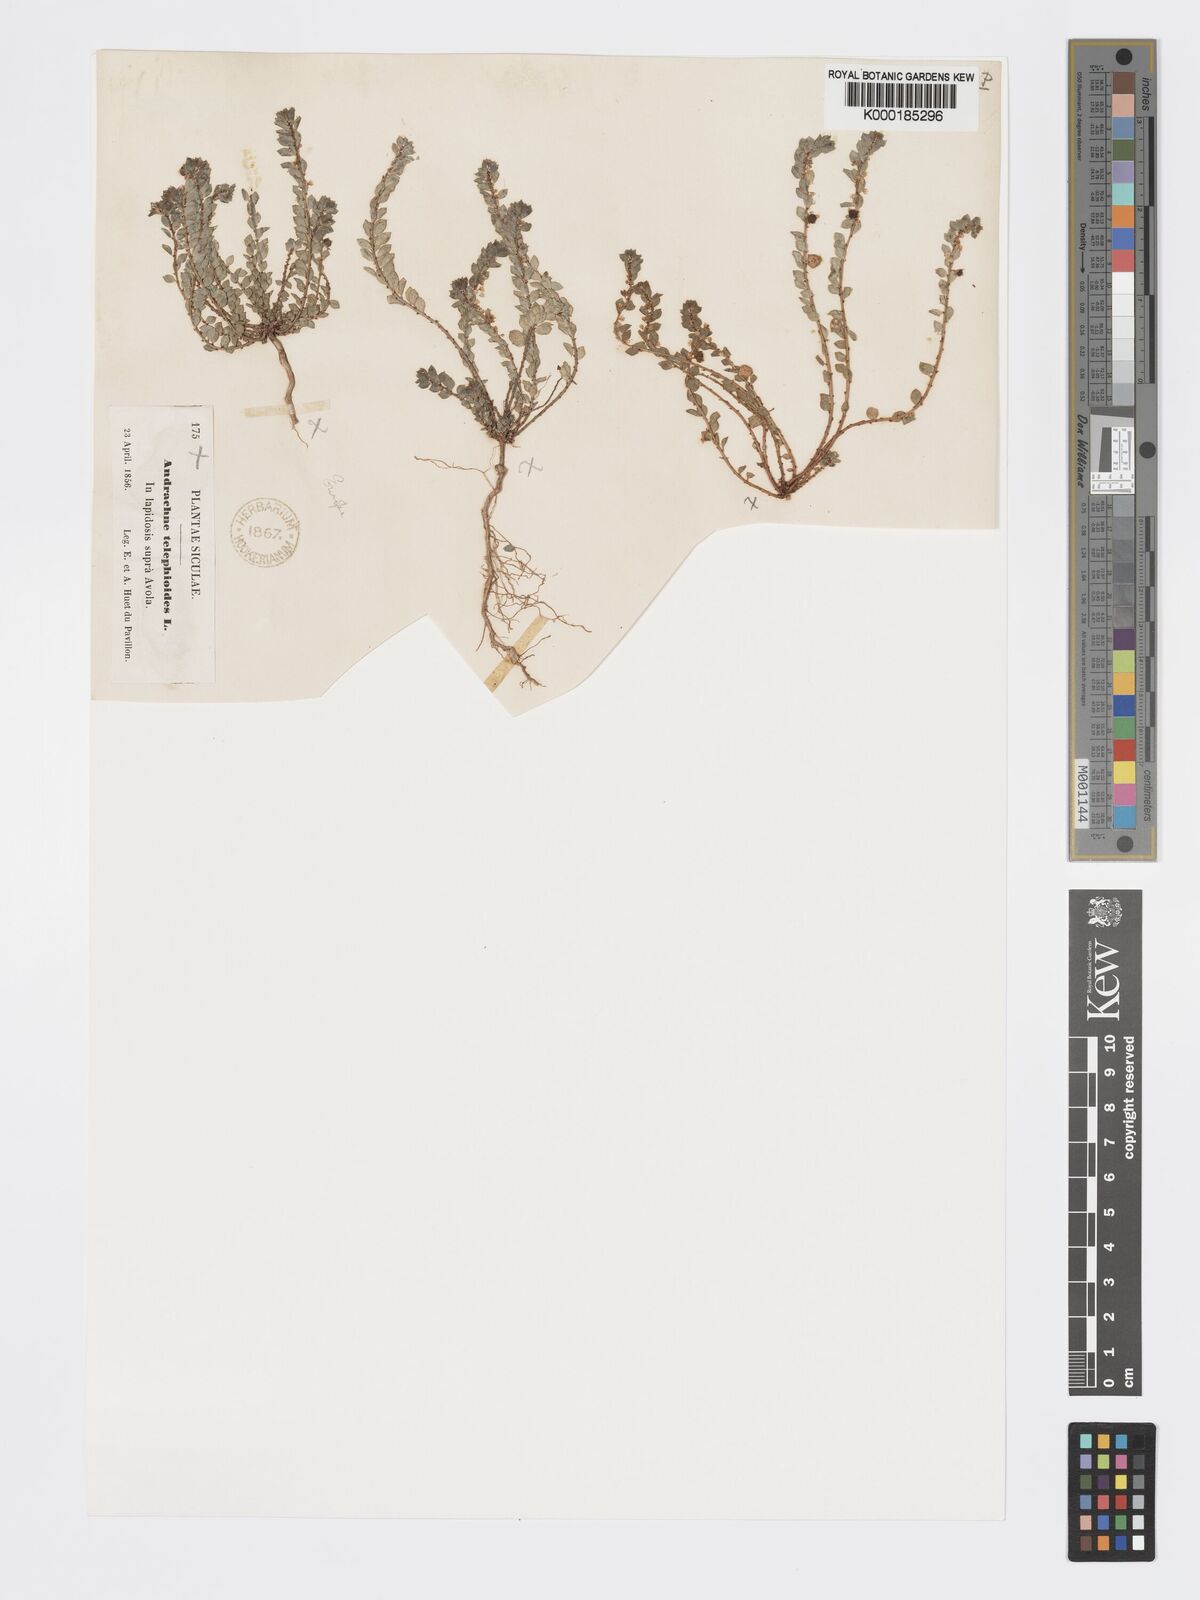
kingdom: Plantae
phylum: Tracheophyta
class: Magnoliopsida
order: Malpighiales
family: Phyllanthaceae
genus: Andrachne
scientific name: Andrachne telephioides
